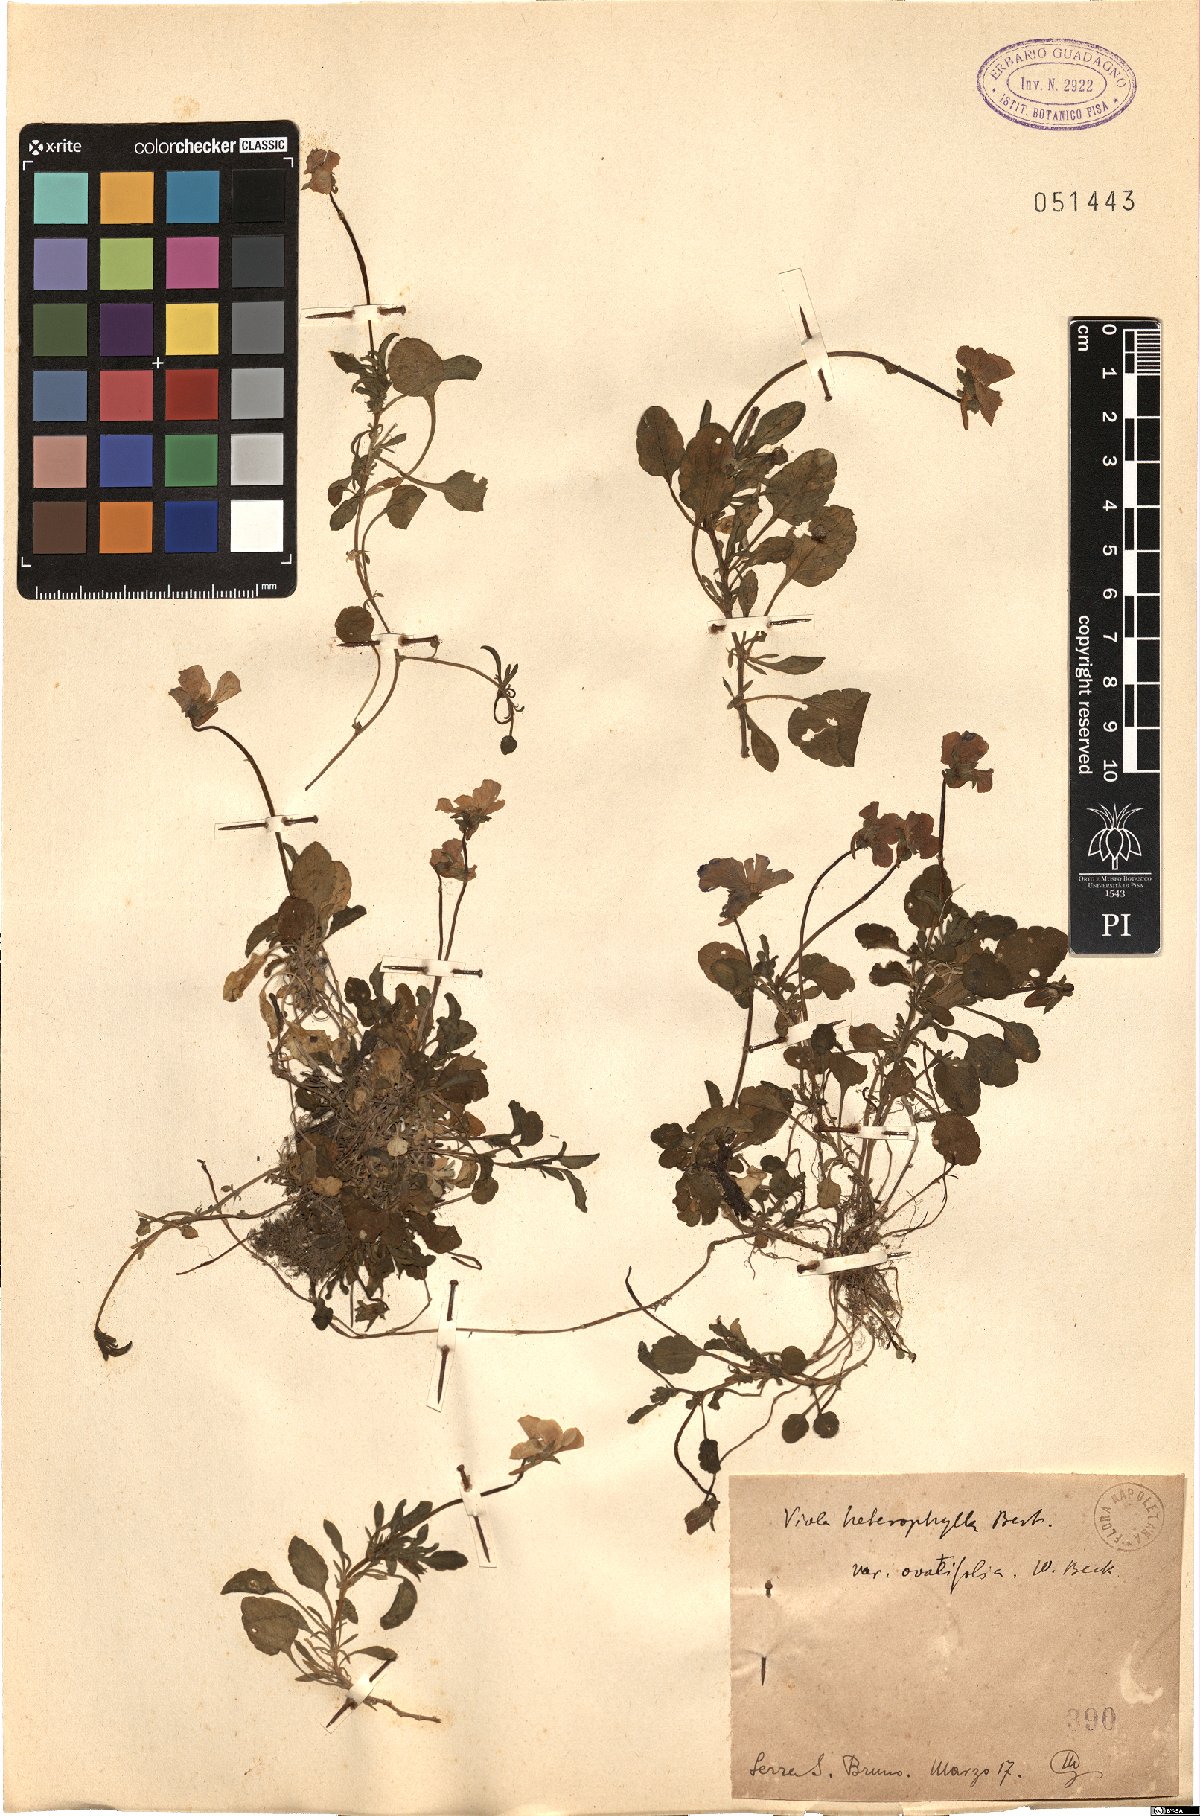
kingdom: Plantae
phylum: Tracheophyta
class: Magnoliopsida
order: Malpighiales
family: Violaceae
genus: Viola
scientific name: Viola heterophylla
